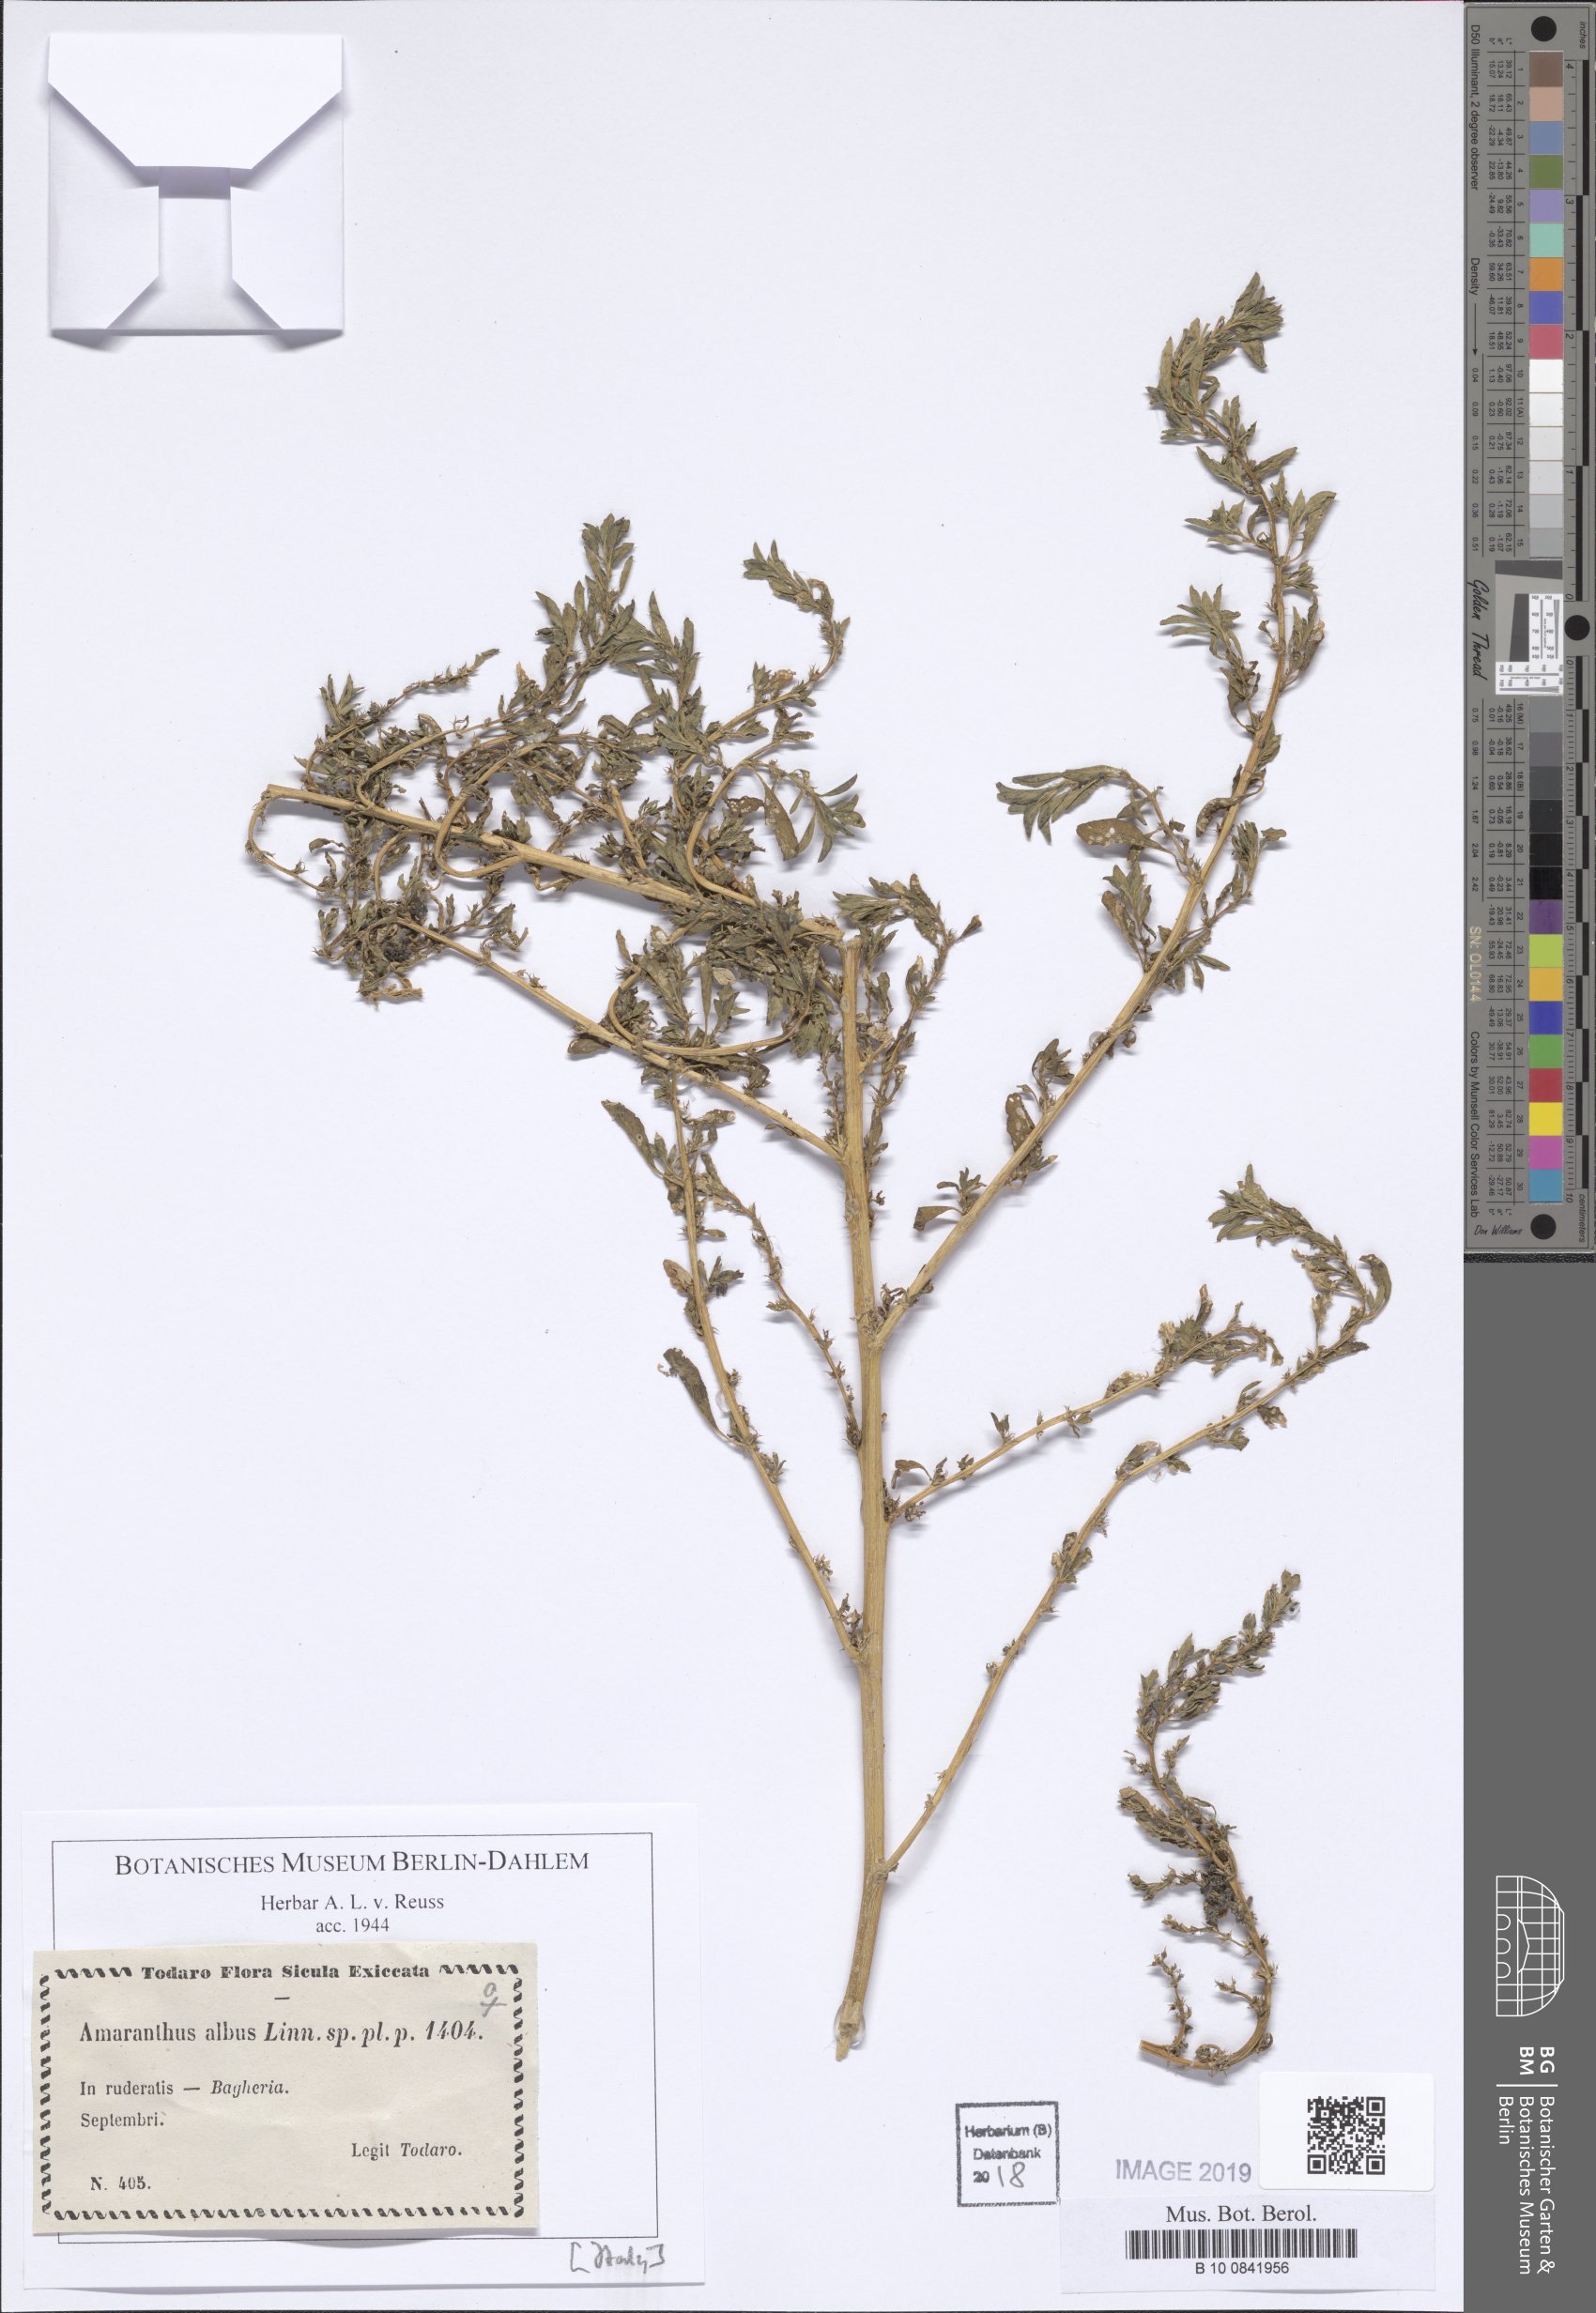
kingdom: Plantae
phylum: Tracheophyta
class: Magnoliopsida
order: Caryophyllales
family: Amaranthaceae
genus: Amaranthus
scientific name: Amaranthus albus
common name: White pigweed
